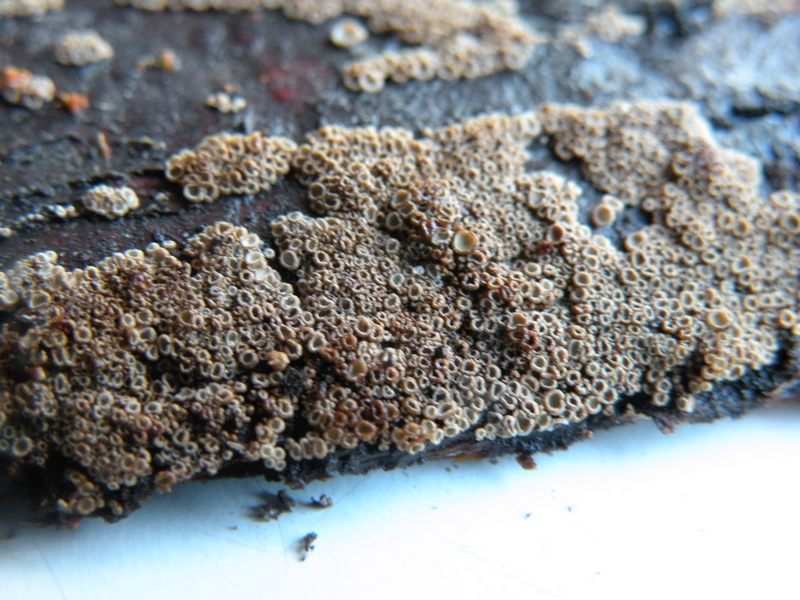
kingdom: Fungi
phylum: Basidiomycota
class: Agaricomycetes
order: Agaricales
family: Niaceae
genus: Merismodes
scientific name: Merismodes anomala
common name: almindelig læderskål
